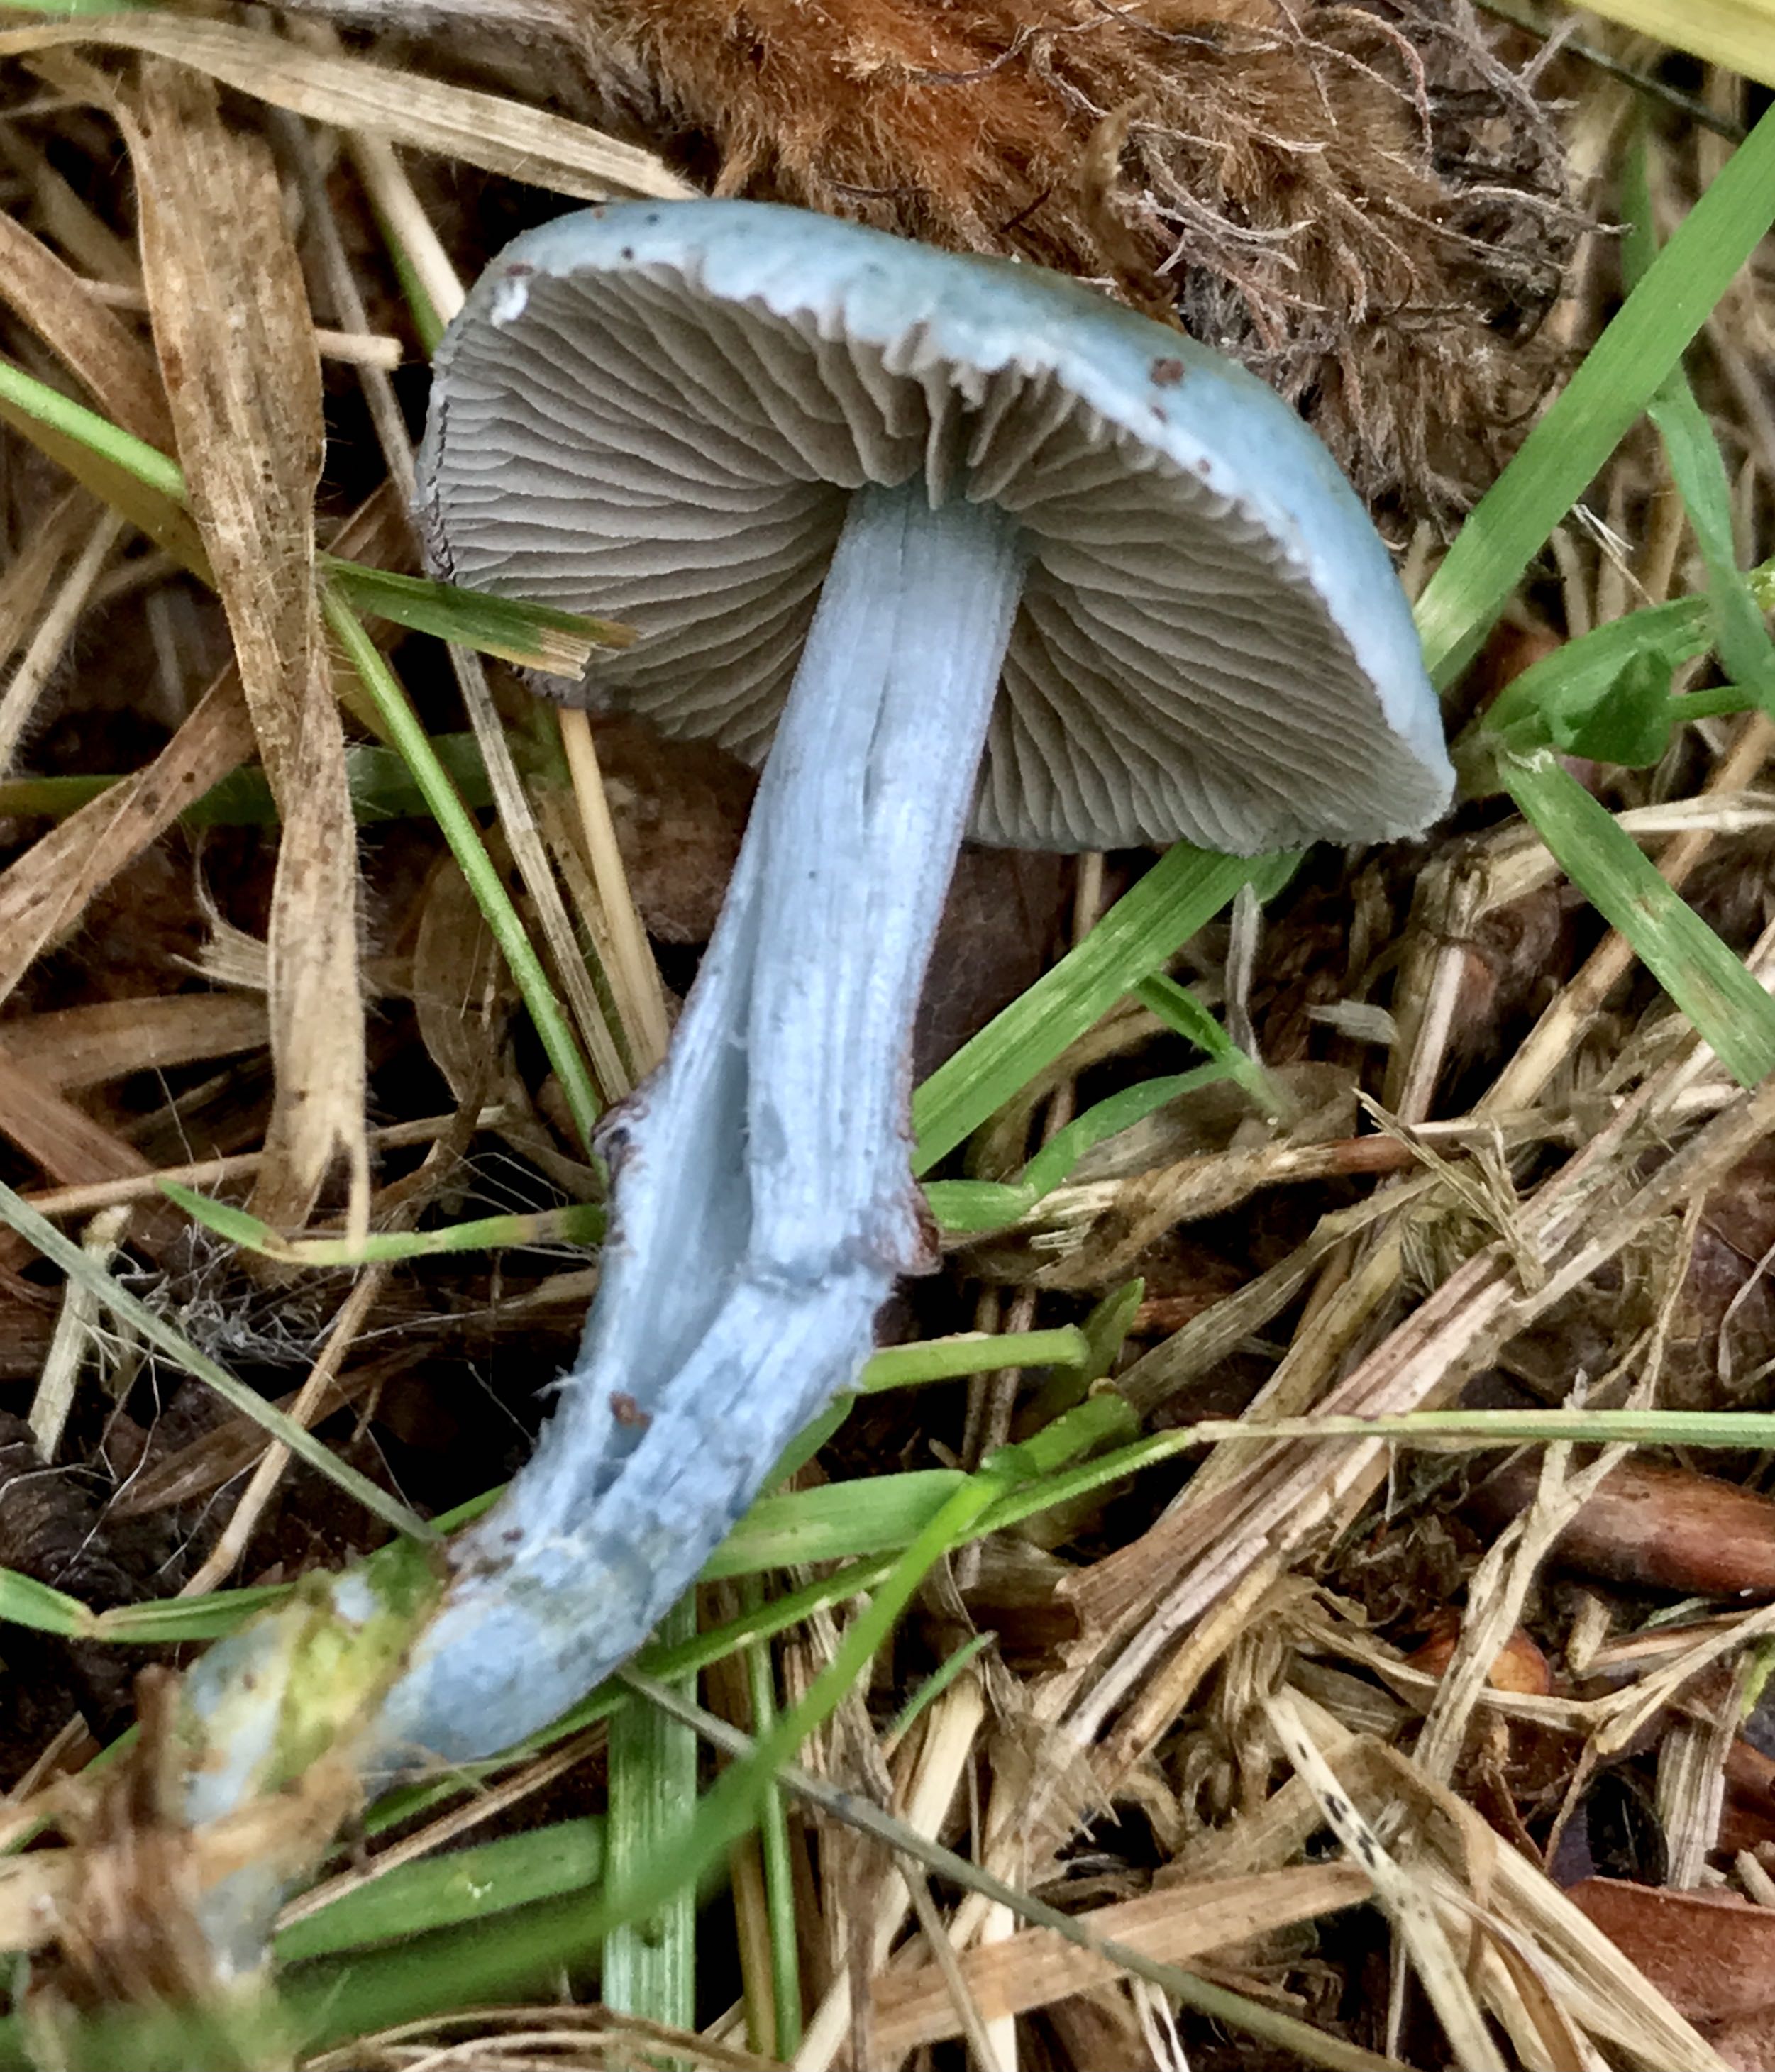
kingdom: Fungi
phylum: Basidiomycota
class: Agaricomycetes
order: Agaricales
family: Strophariaceae
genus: Stropharia
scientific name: Stropharia cyanea
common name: blågrøn bredblad
